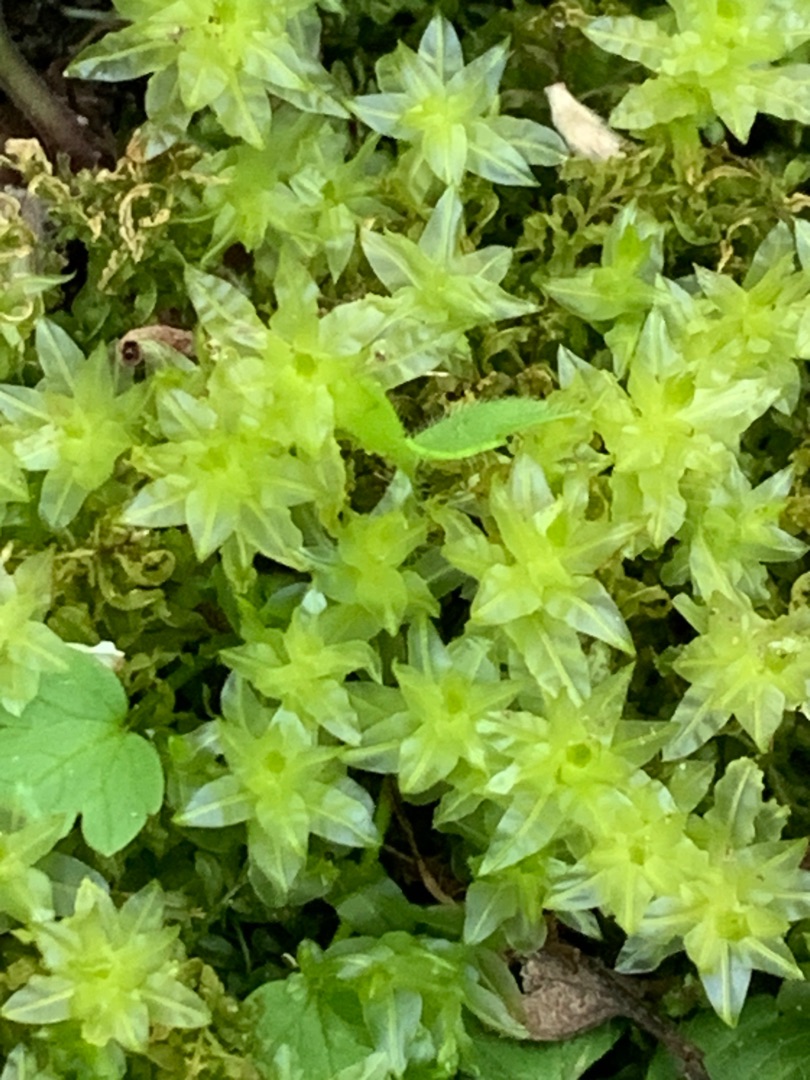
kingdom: Plantae
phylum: Bryophyta
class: Bryopsida
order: Bryales
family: Mniaceae
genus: Plagiomnium
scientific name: Plagiomnium undulatum
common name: Bølget krybstjerne
